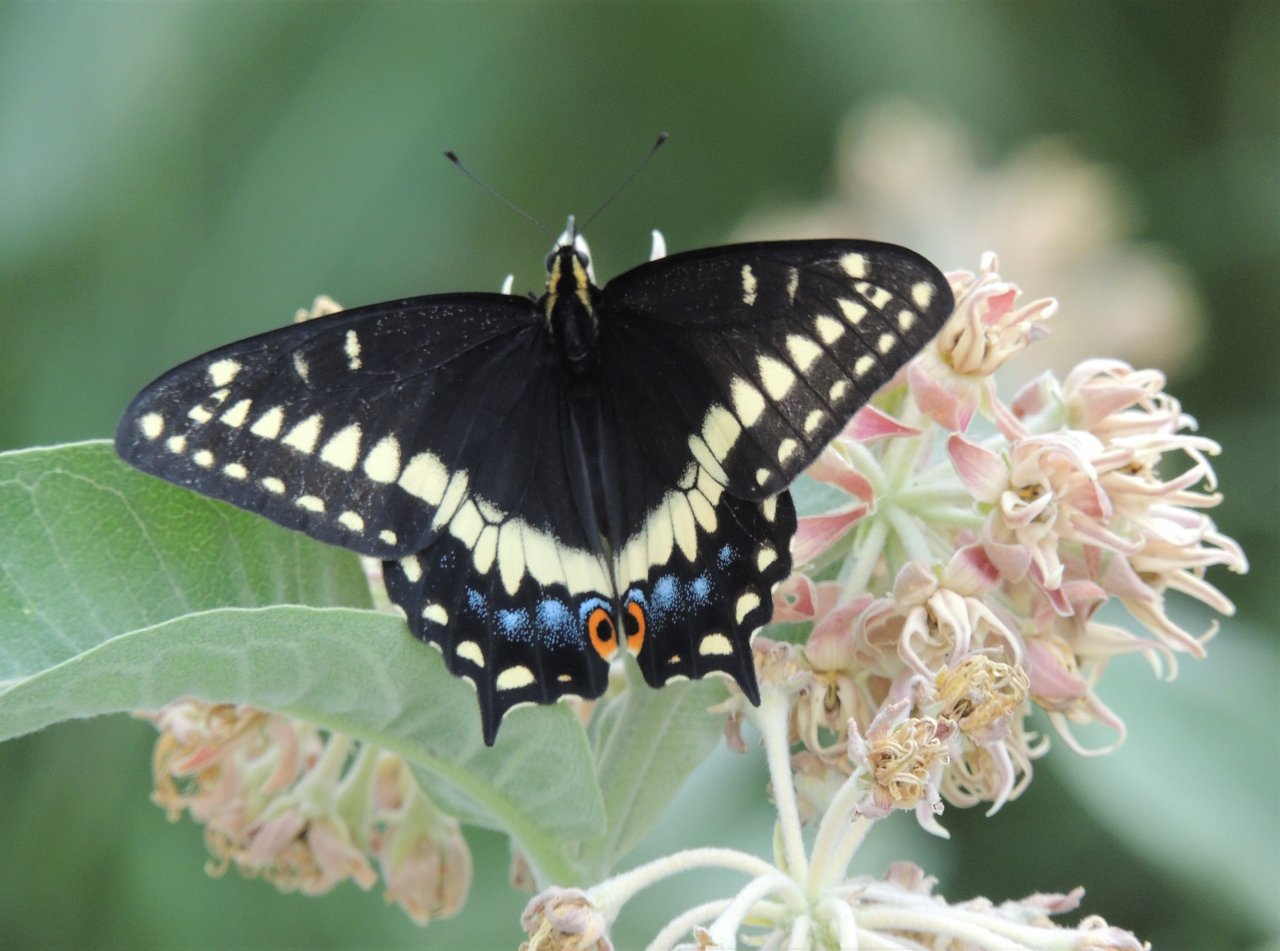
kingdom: Animalia
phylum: Arthropoda
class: Insecta
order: Lepidoptera
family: Papilionidae
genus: Papilio
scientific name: Papilio indra
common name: Indra Swallowtail
